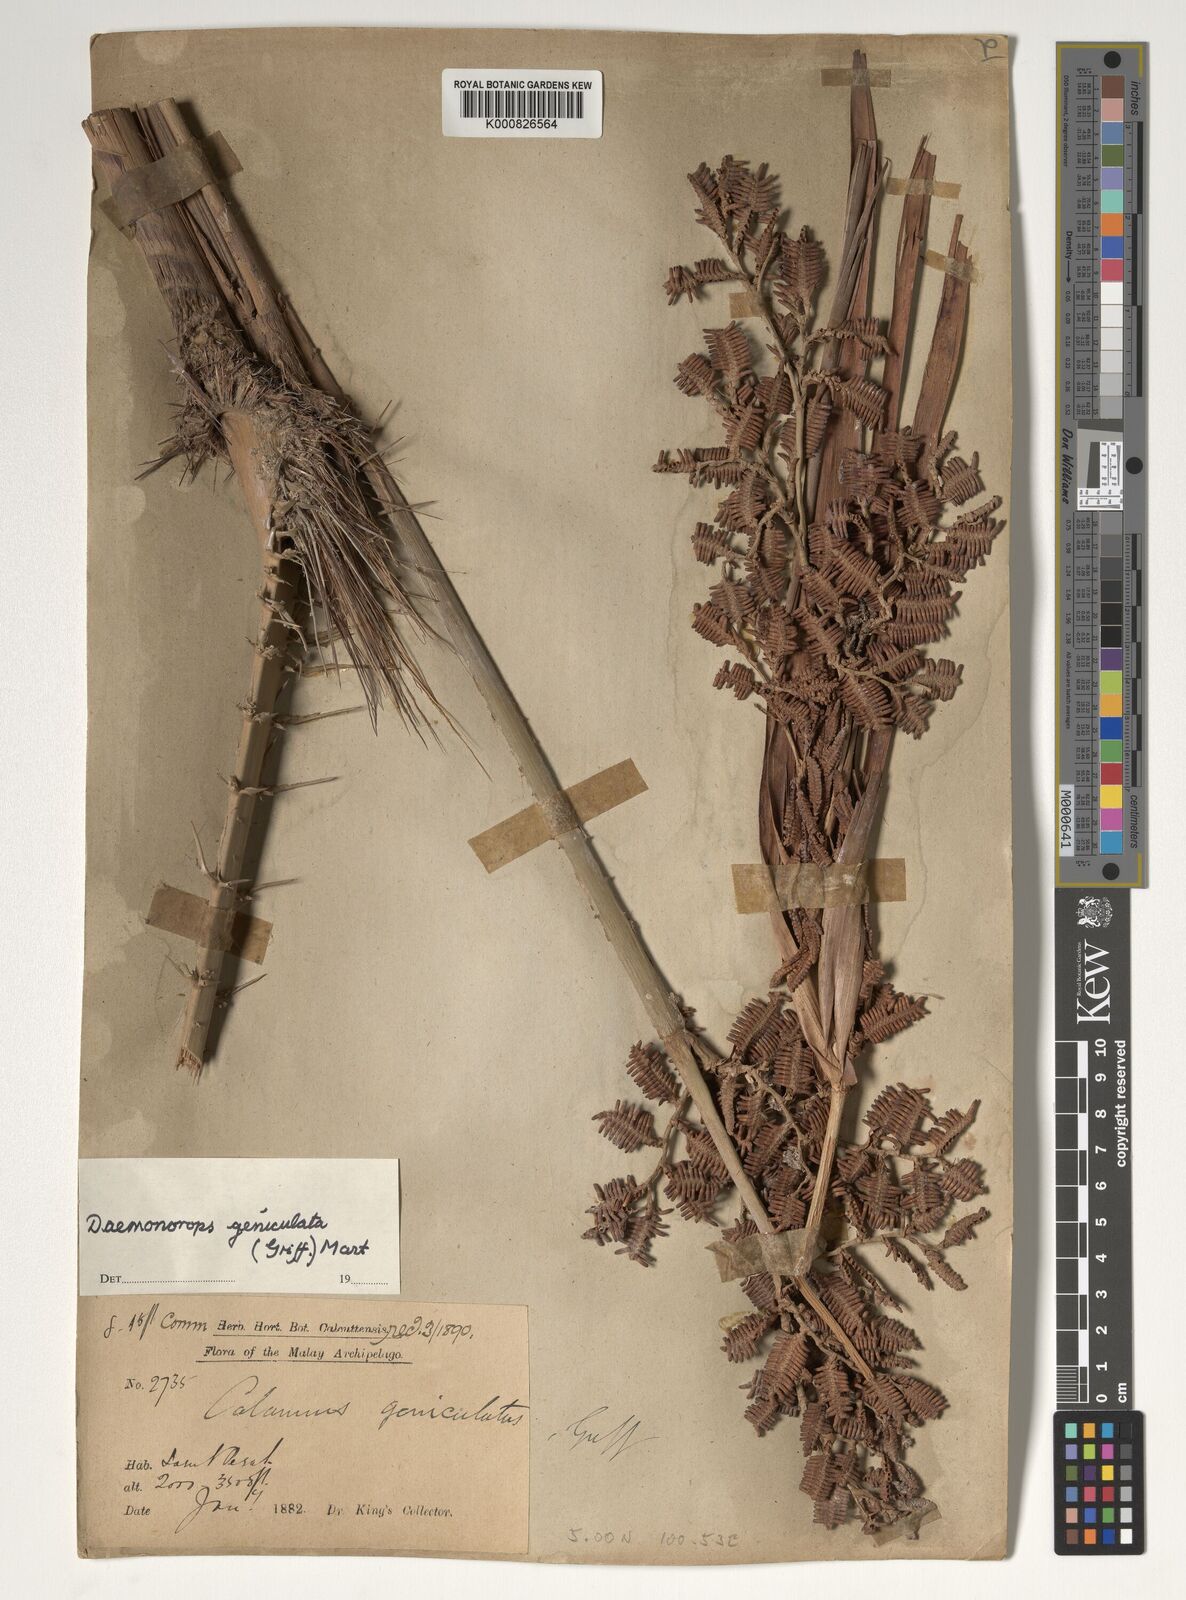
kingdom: Plantae
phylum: Tracheophyta
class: Liliopsida
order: Arecales
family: Arecaceae
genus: Calamus
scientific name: Calamus geniculatus
